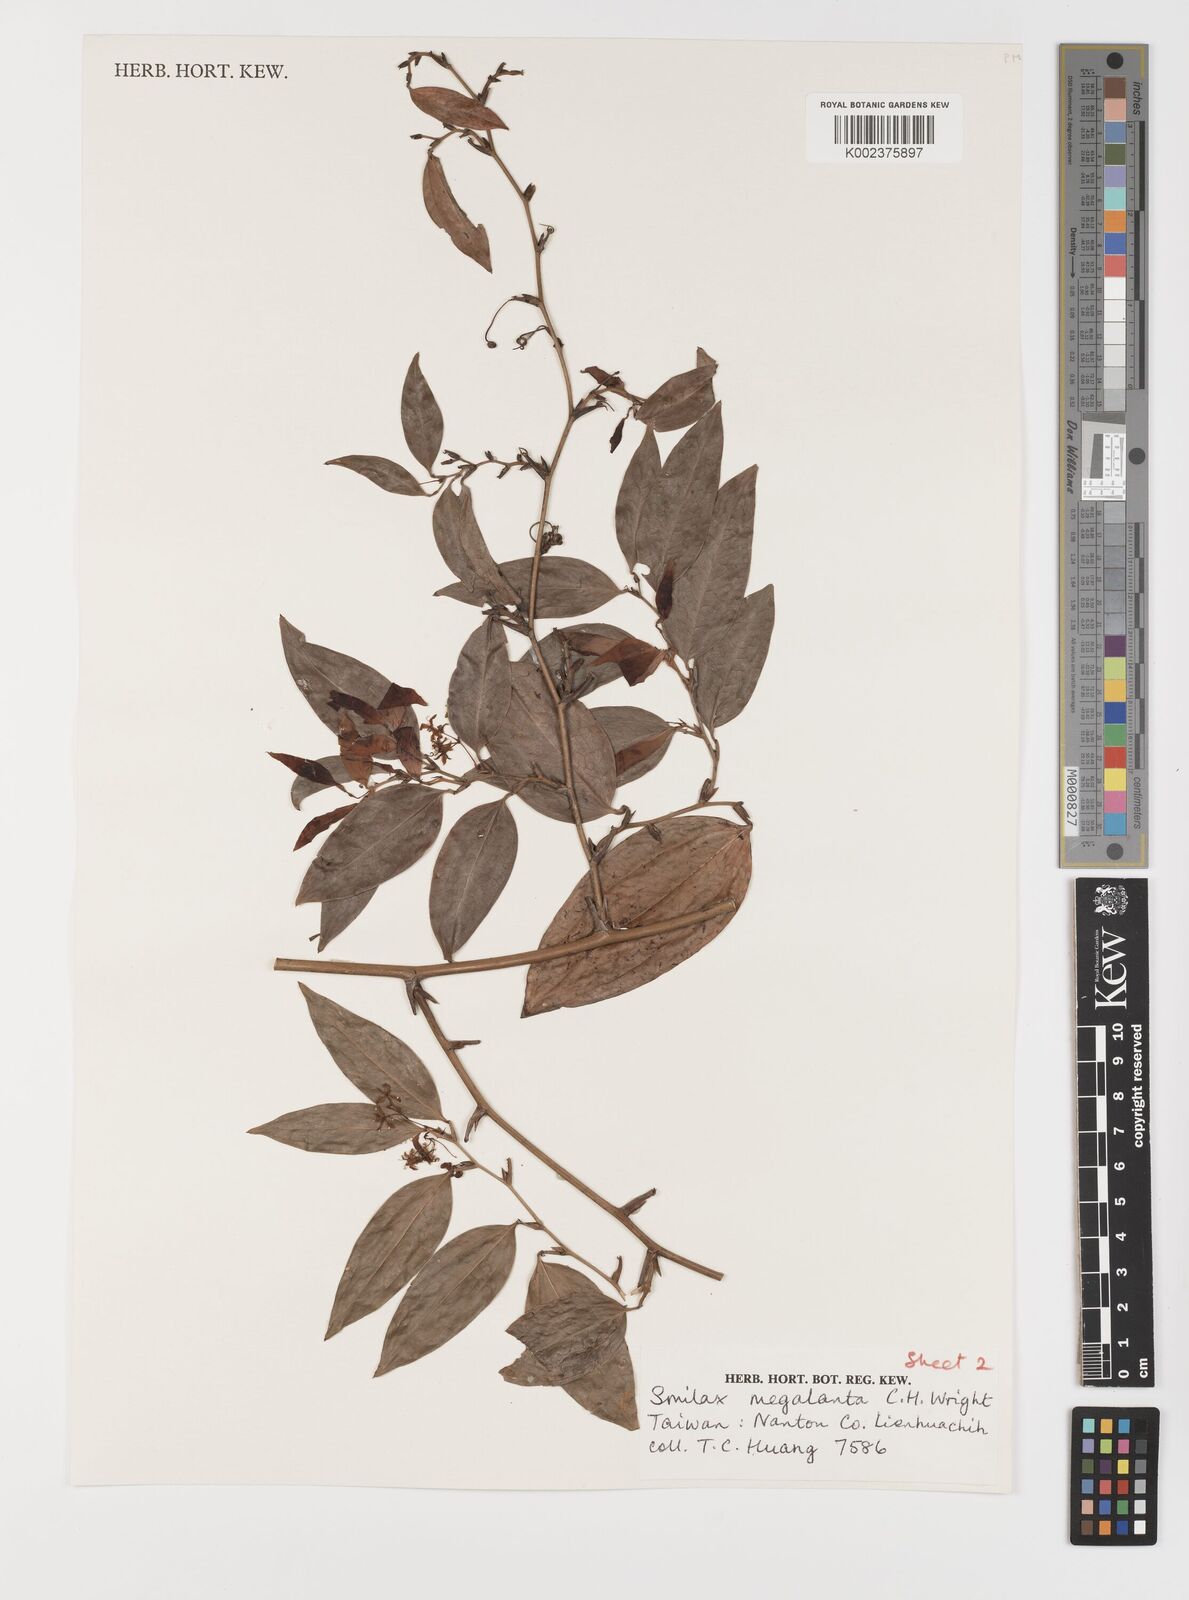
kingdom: Plantae
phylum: Tracheophyta
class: Liliopsida
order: Liliales
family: Smilacaceae
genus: Smilax
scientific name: Smilax megalantha
